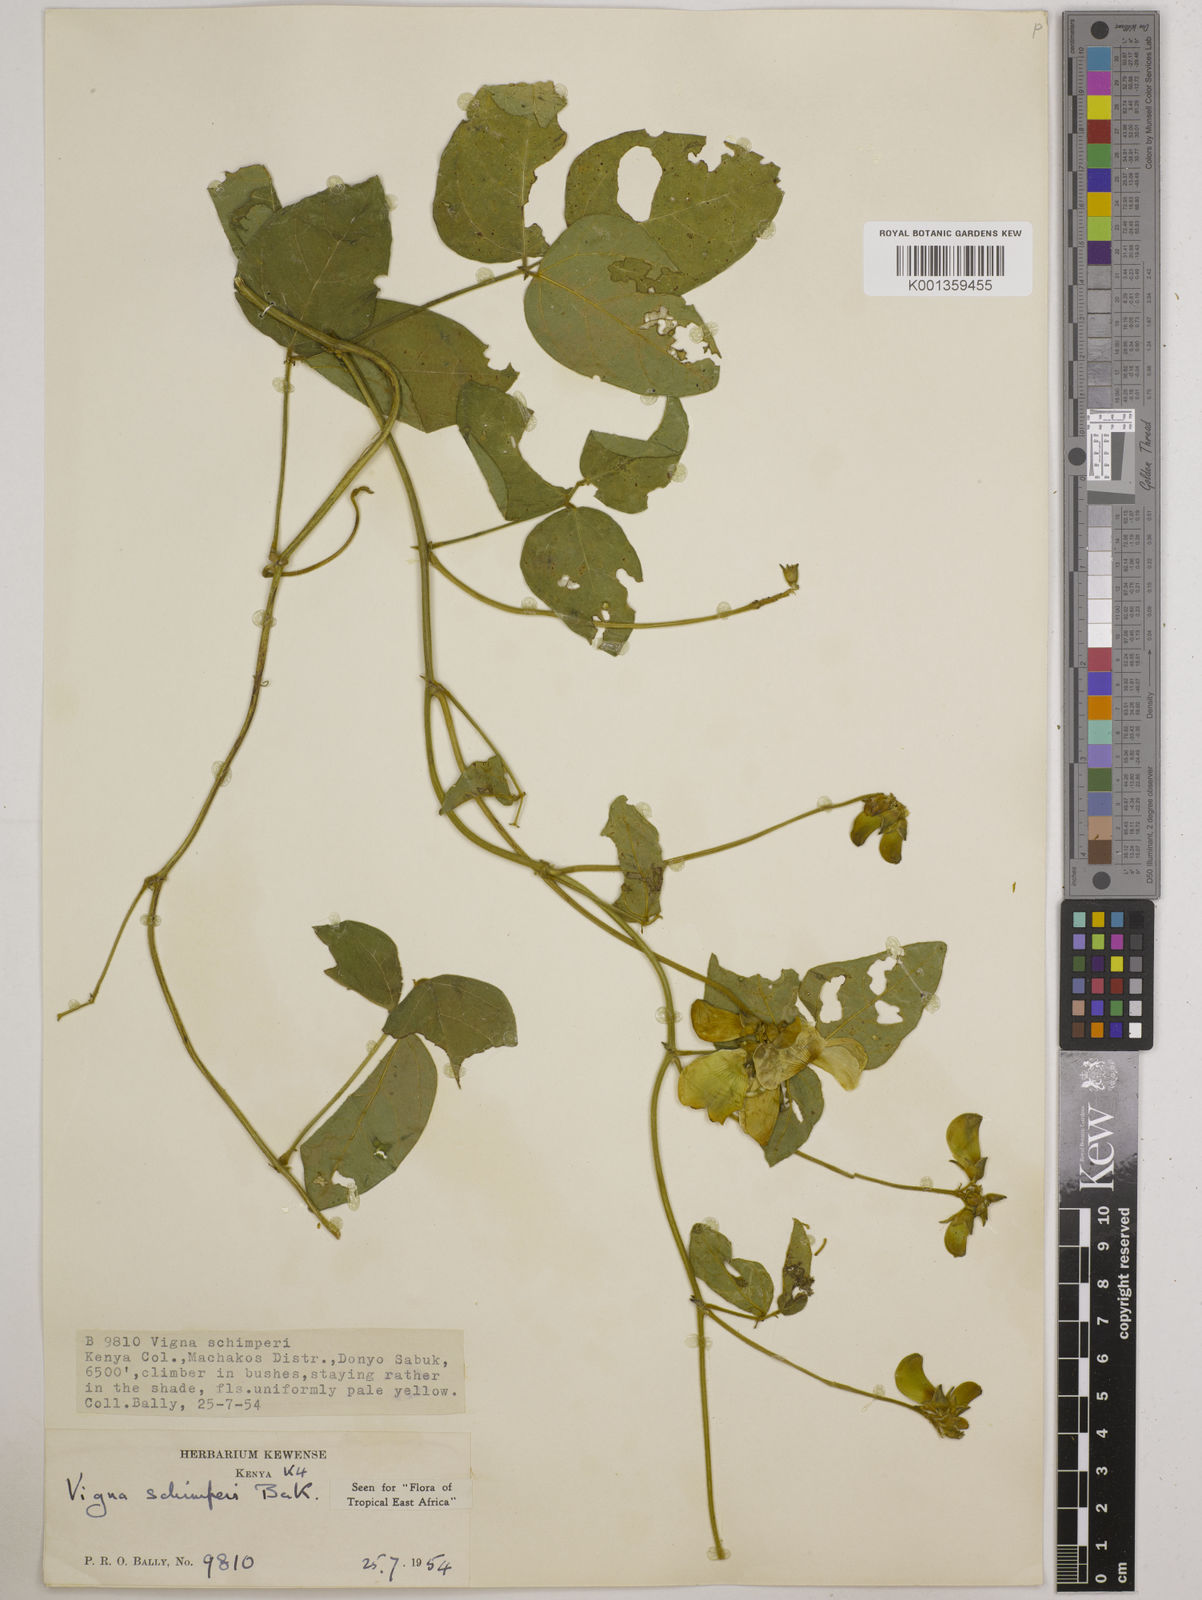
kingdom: Plantae
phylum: Tracheophyta
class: Magnoliopsida
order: Fabales
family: Fabaceae
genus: Vigna
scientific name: Vigna schimperi
